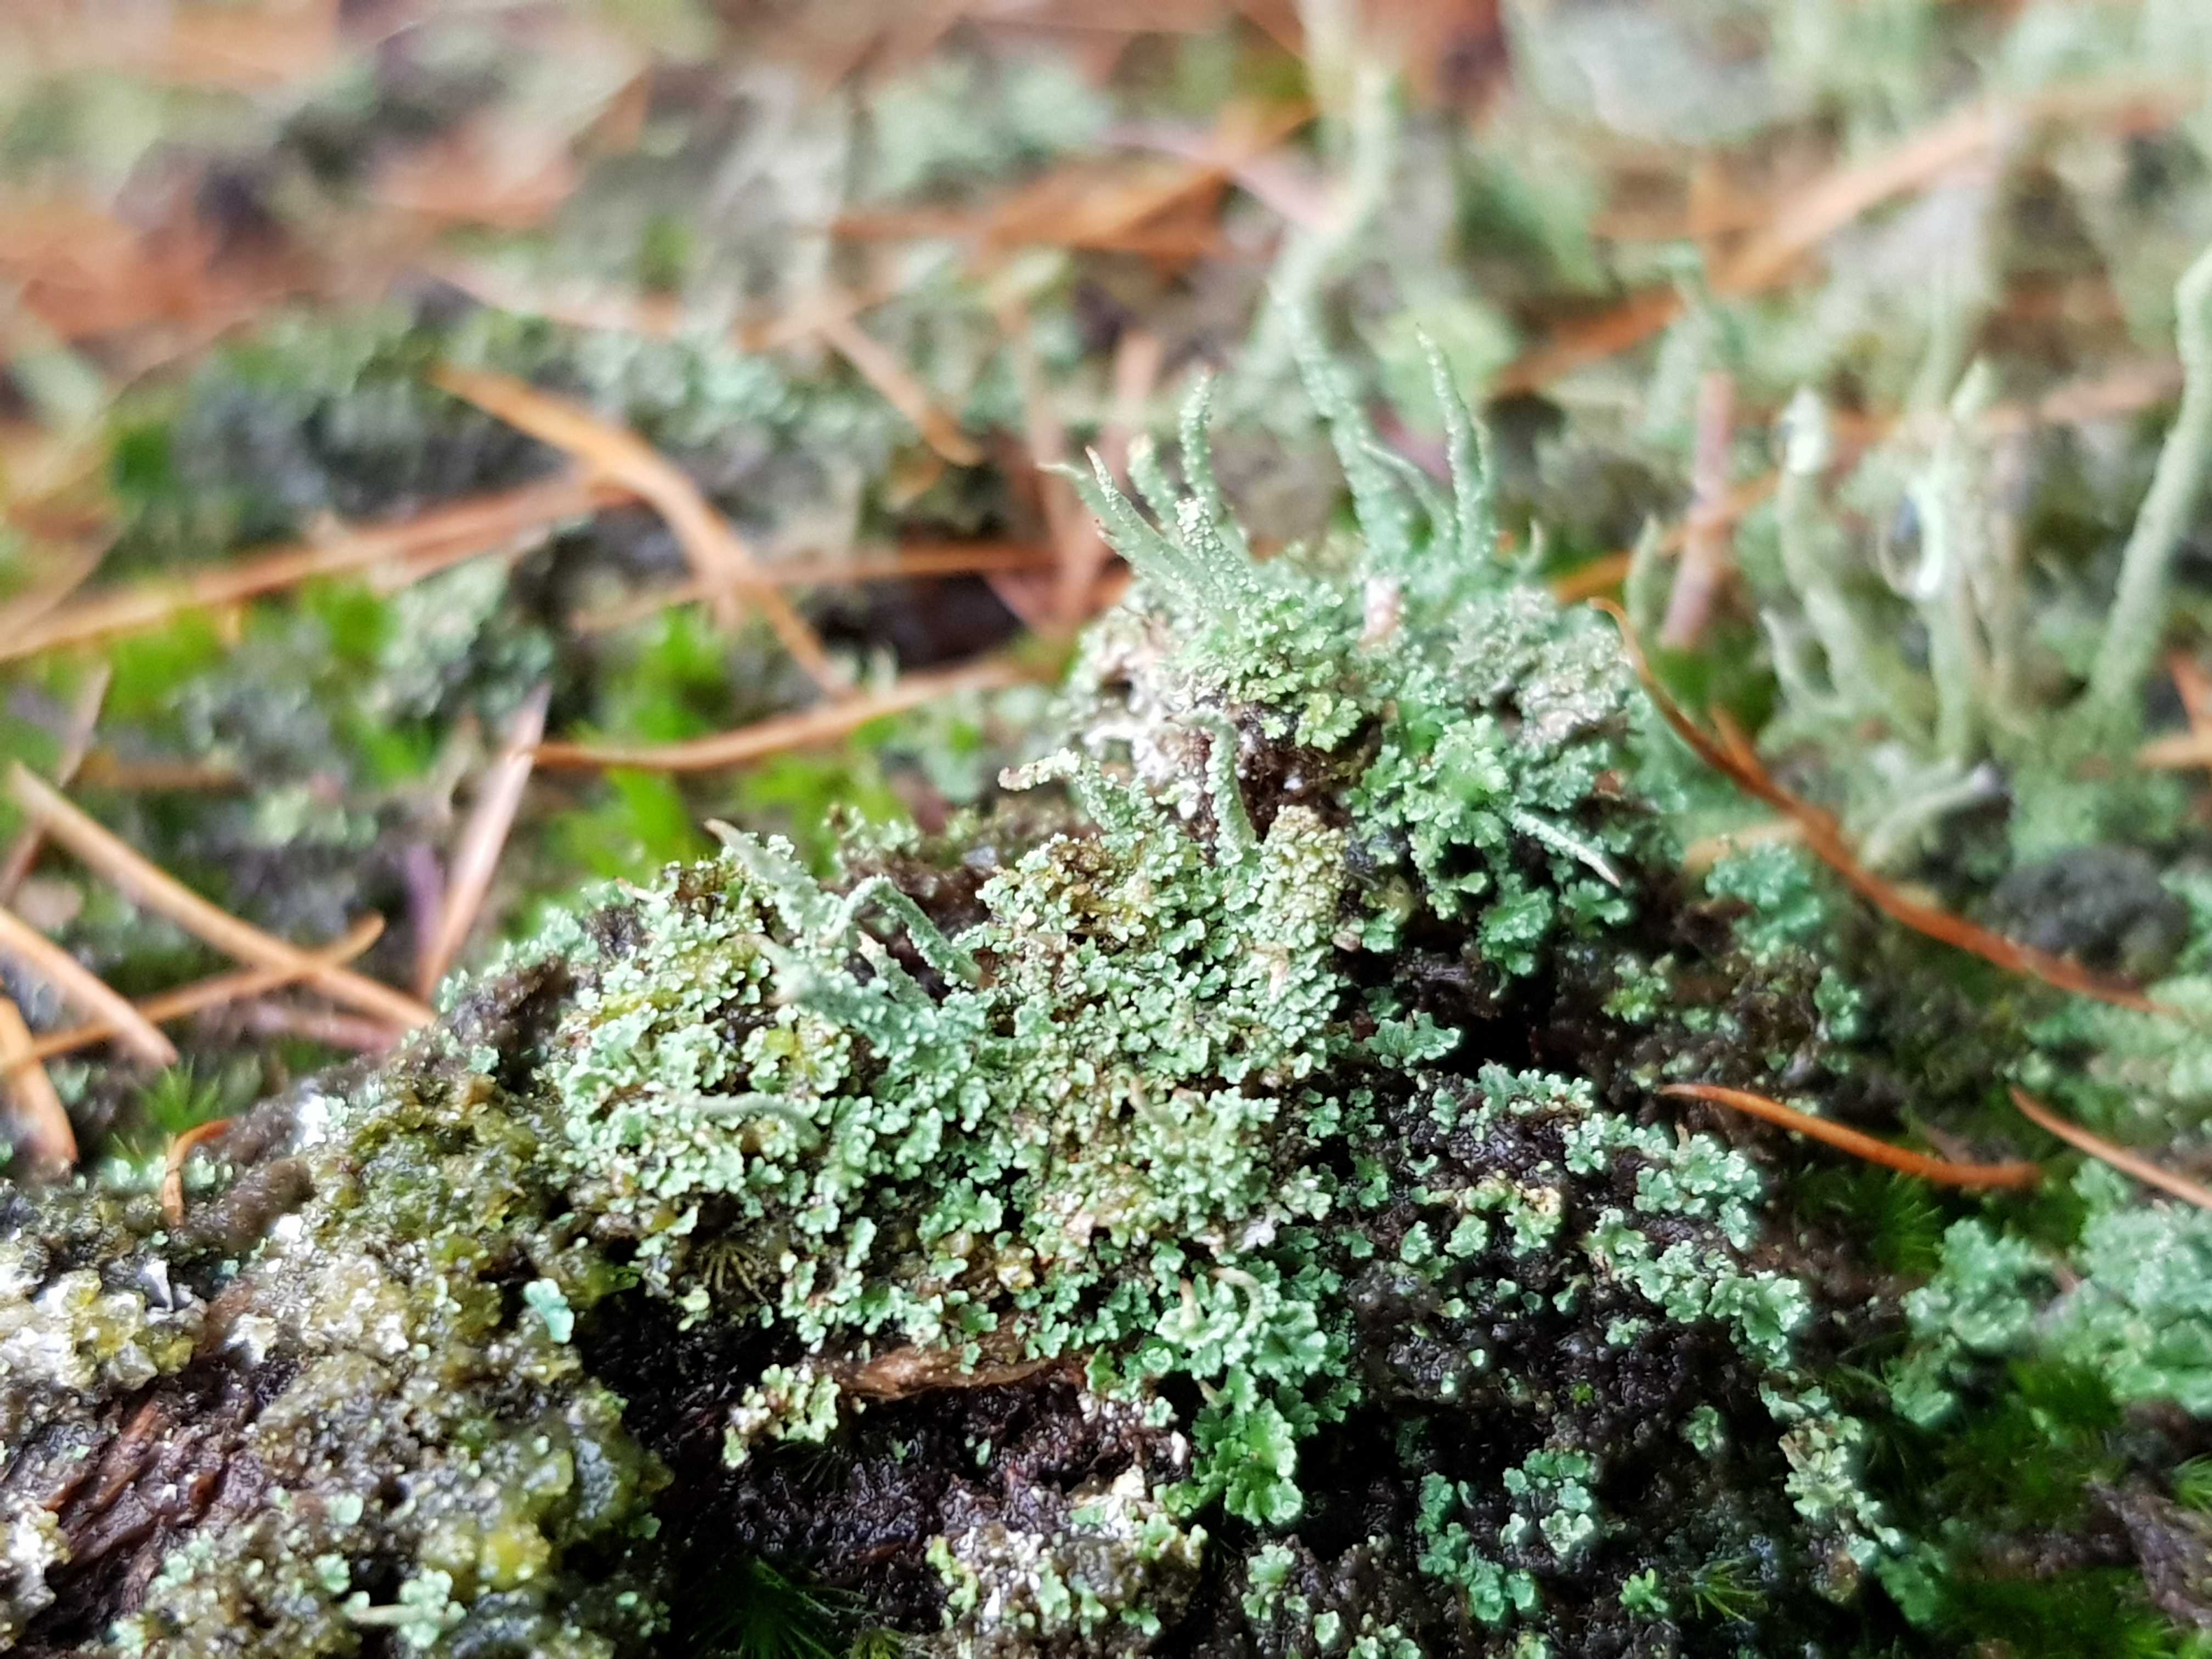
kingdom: Fungi
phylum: Ascomycota
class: Lecanoromycetes
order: Lecanorales
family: Cladoniaceae
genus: Cladonia
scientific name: Cladonia scabriuscula
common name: ru bægerlav
